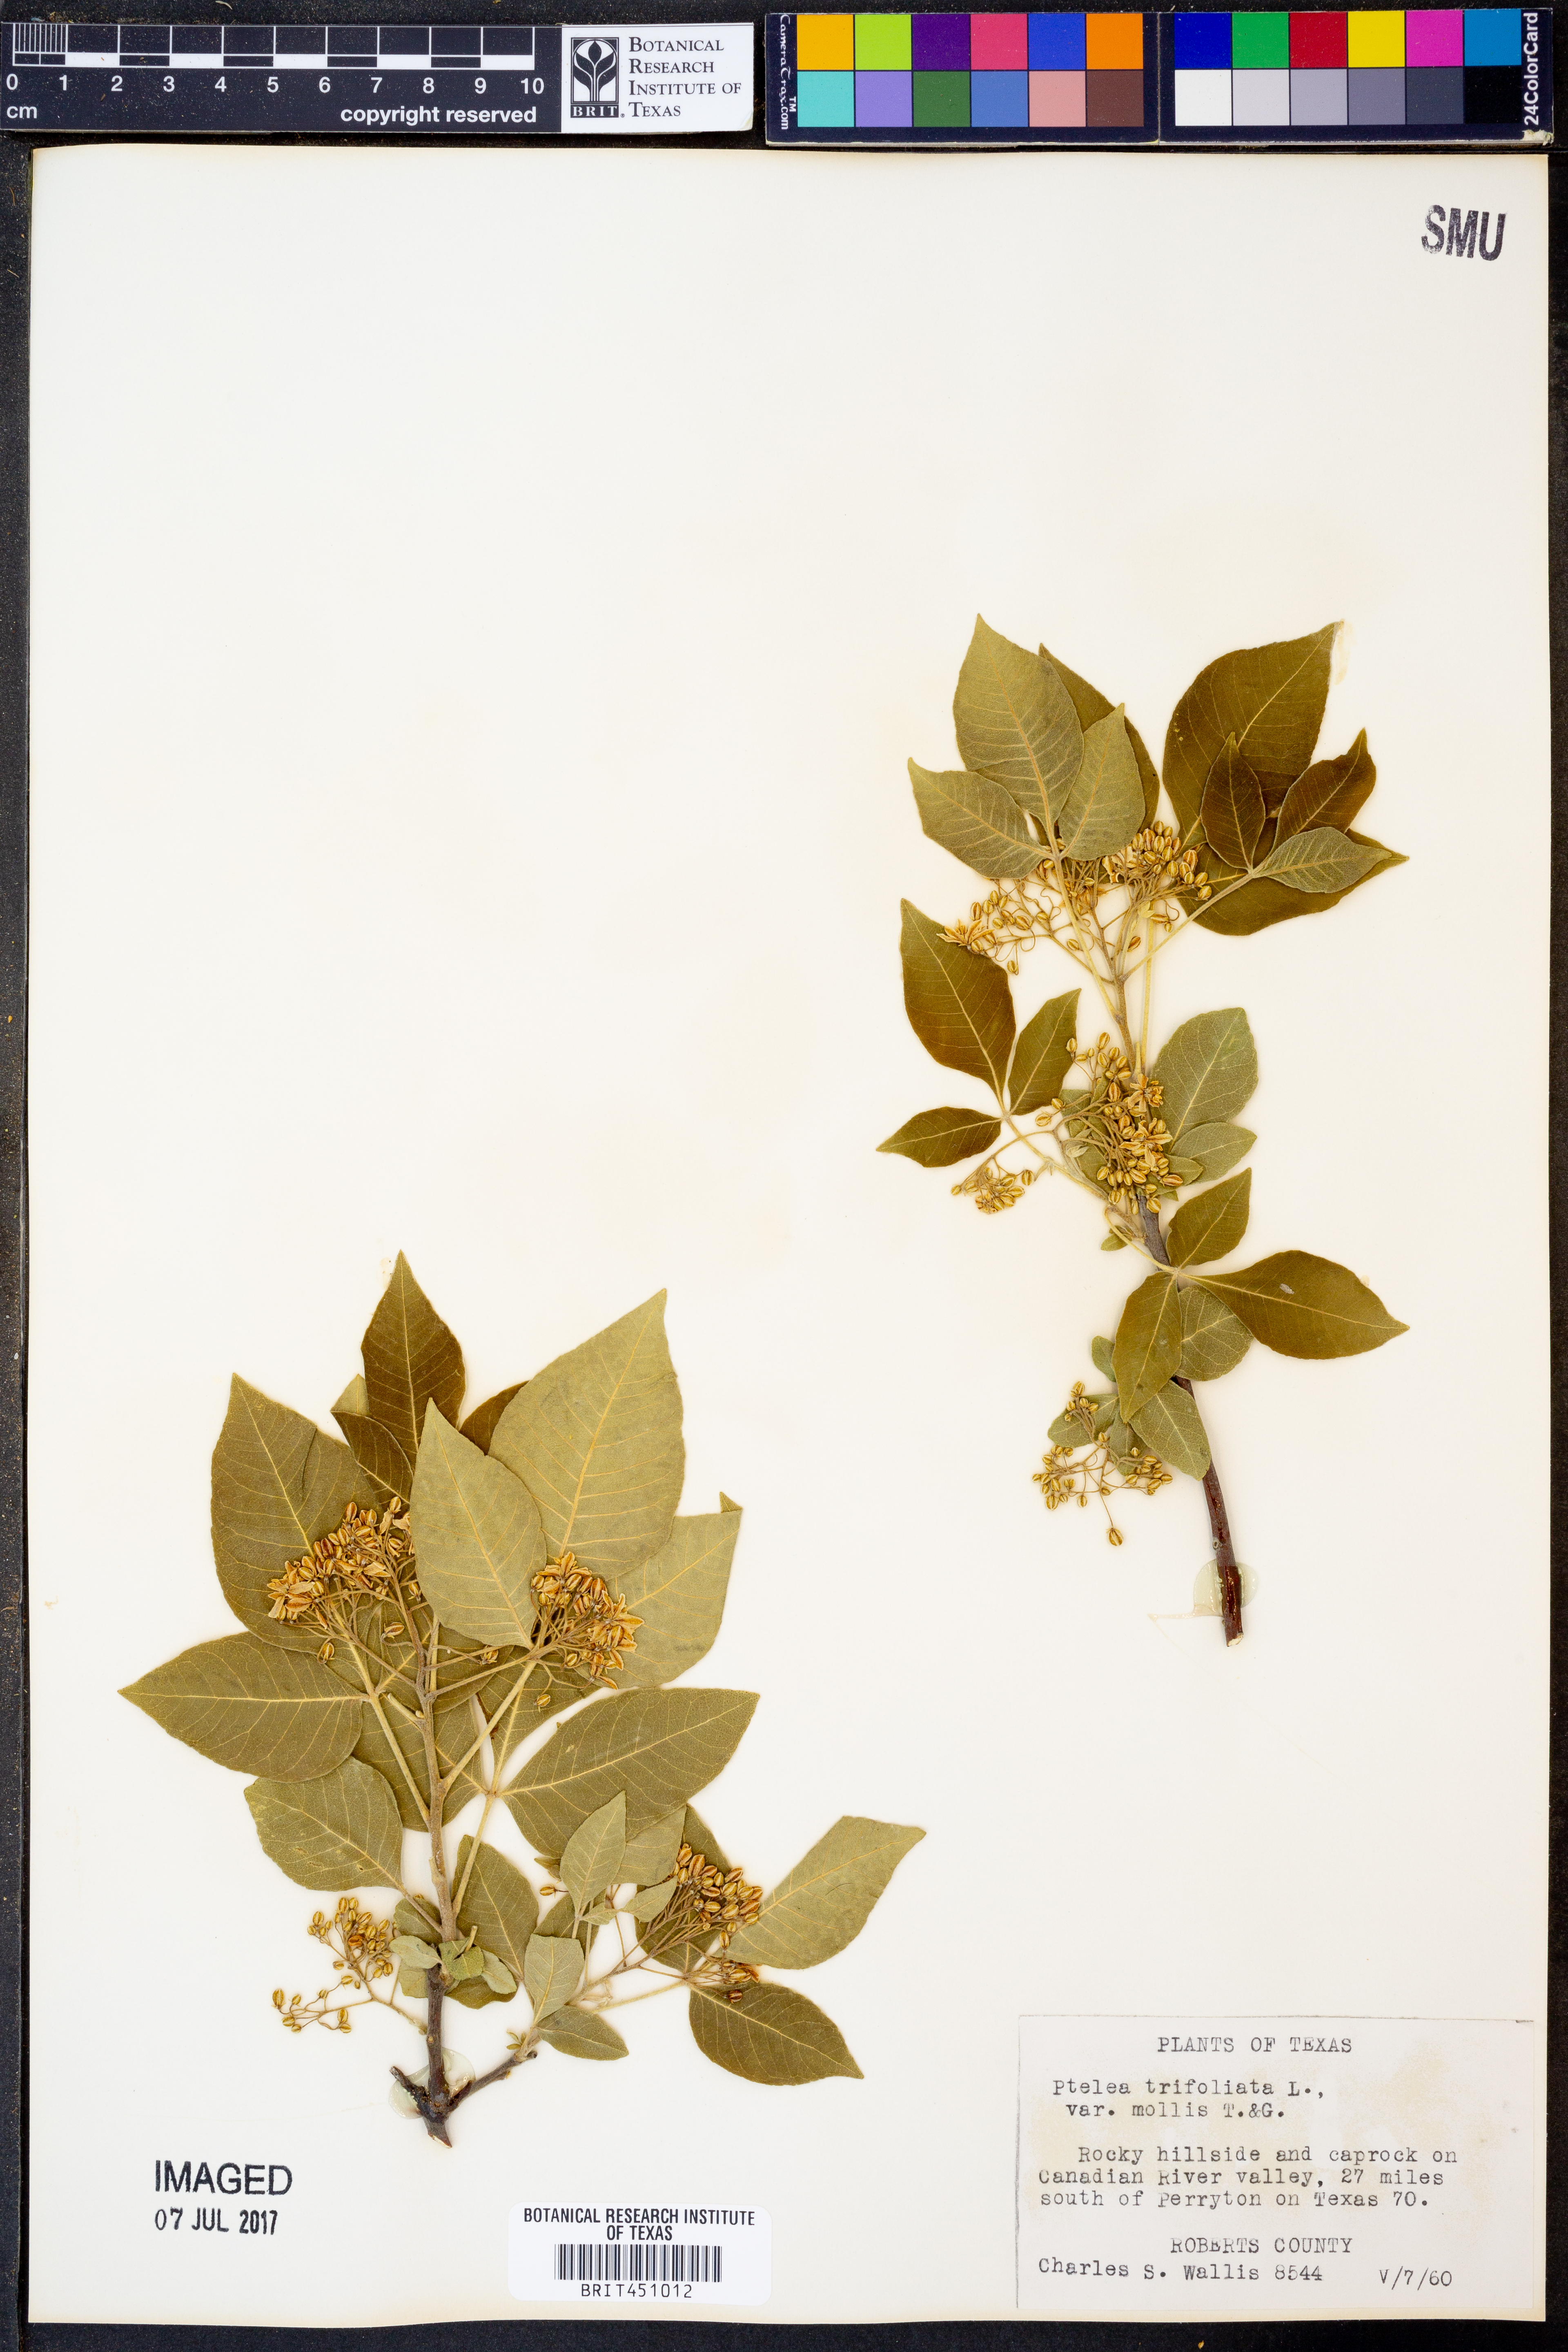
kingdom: Plantae
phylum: Tracheophyta
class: Magnoliopsida
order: Sapindales
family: Rutaceae
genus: Ptelea
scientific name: Ptelea trifoliata
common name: Common hop-tree
